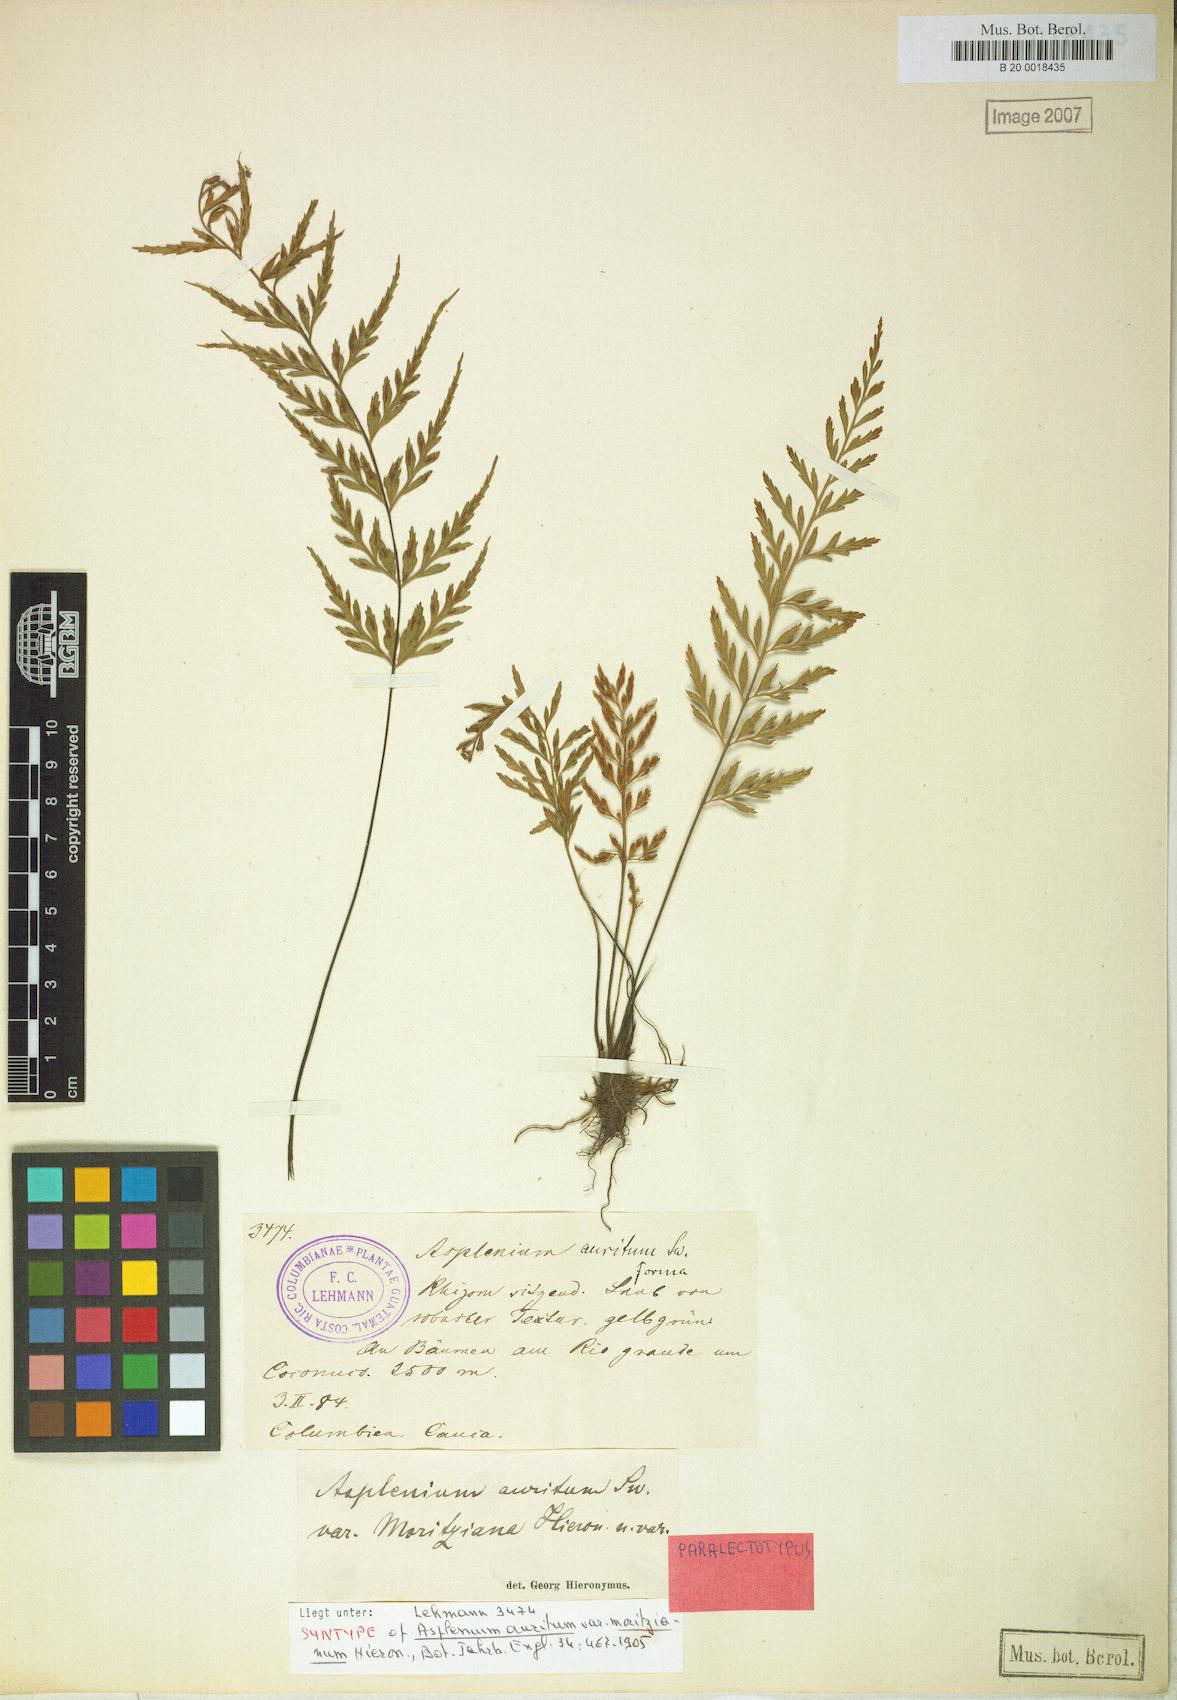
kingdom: Plantae
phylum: Tracheophyta
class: Polypodiopsida
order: Polypodiales
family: Aspleniaceae
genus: Asplenium
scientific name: Asplenium auritum
